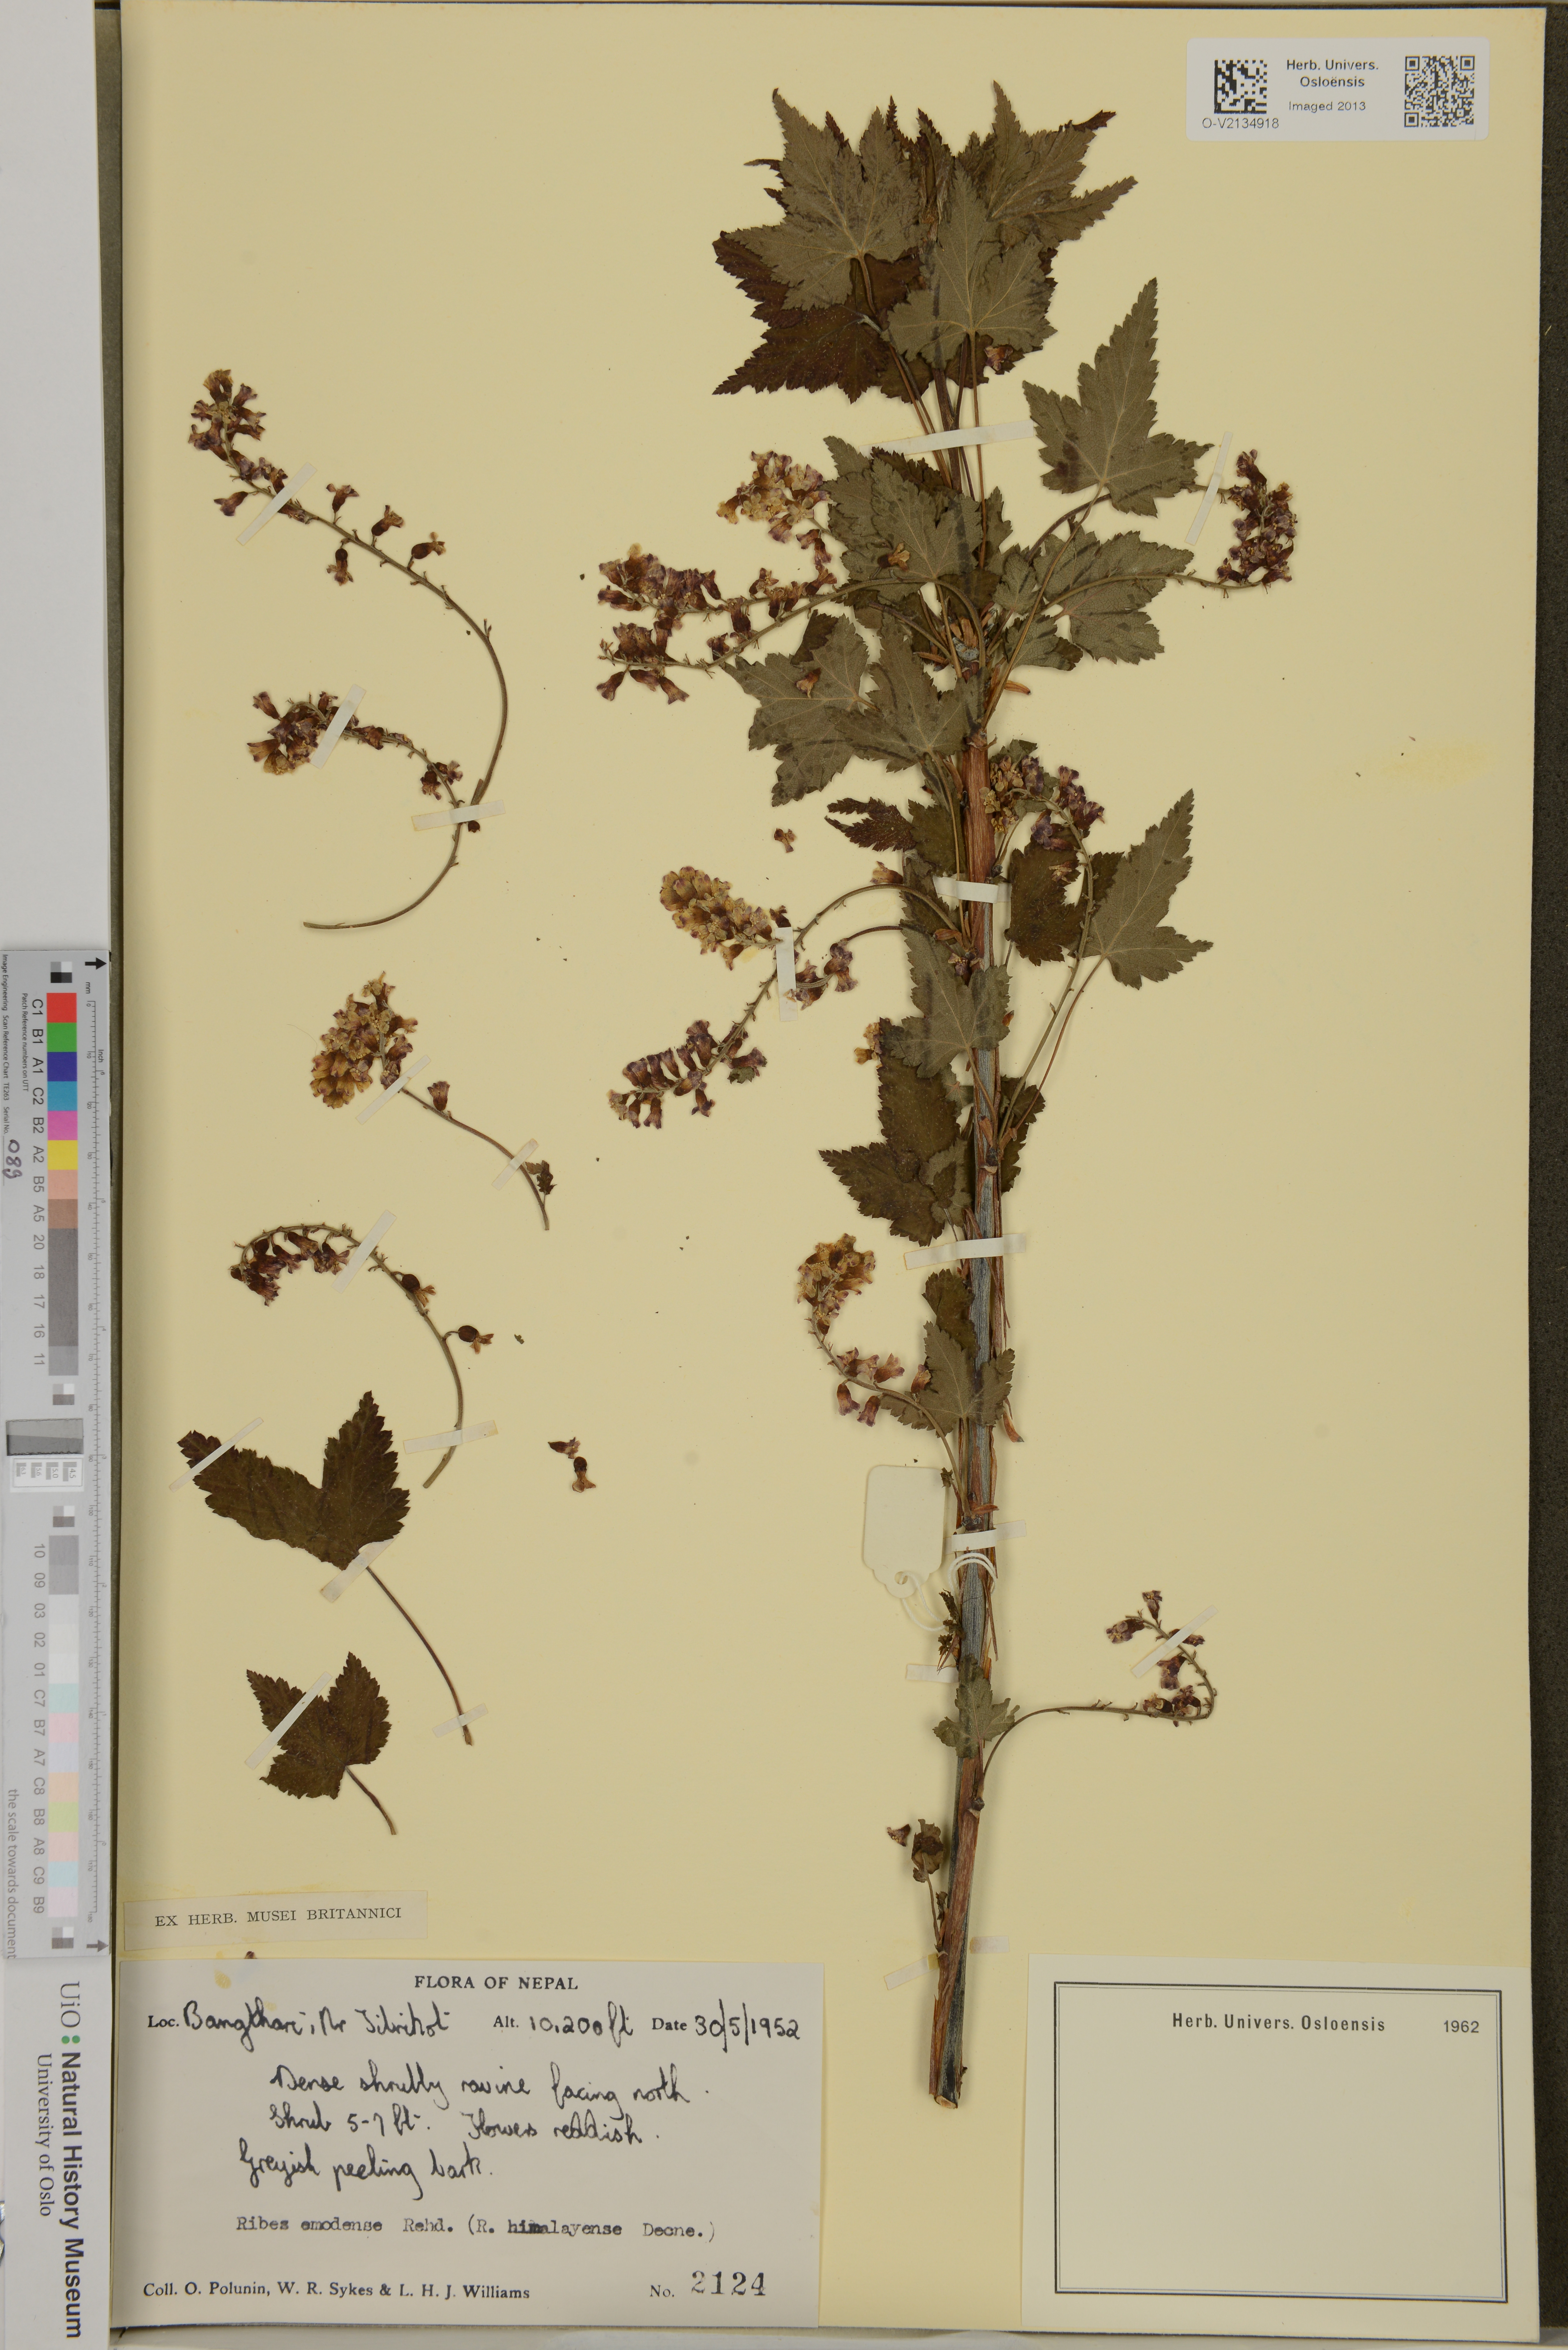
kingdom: Plantae
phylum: Tracheophyta
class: Magnoliopsida
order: Saxifragales
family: Grossulariaceae
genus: Ribes
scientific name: Ribes himalense
